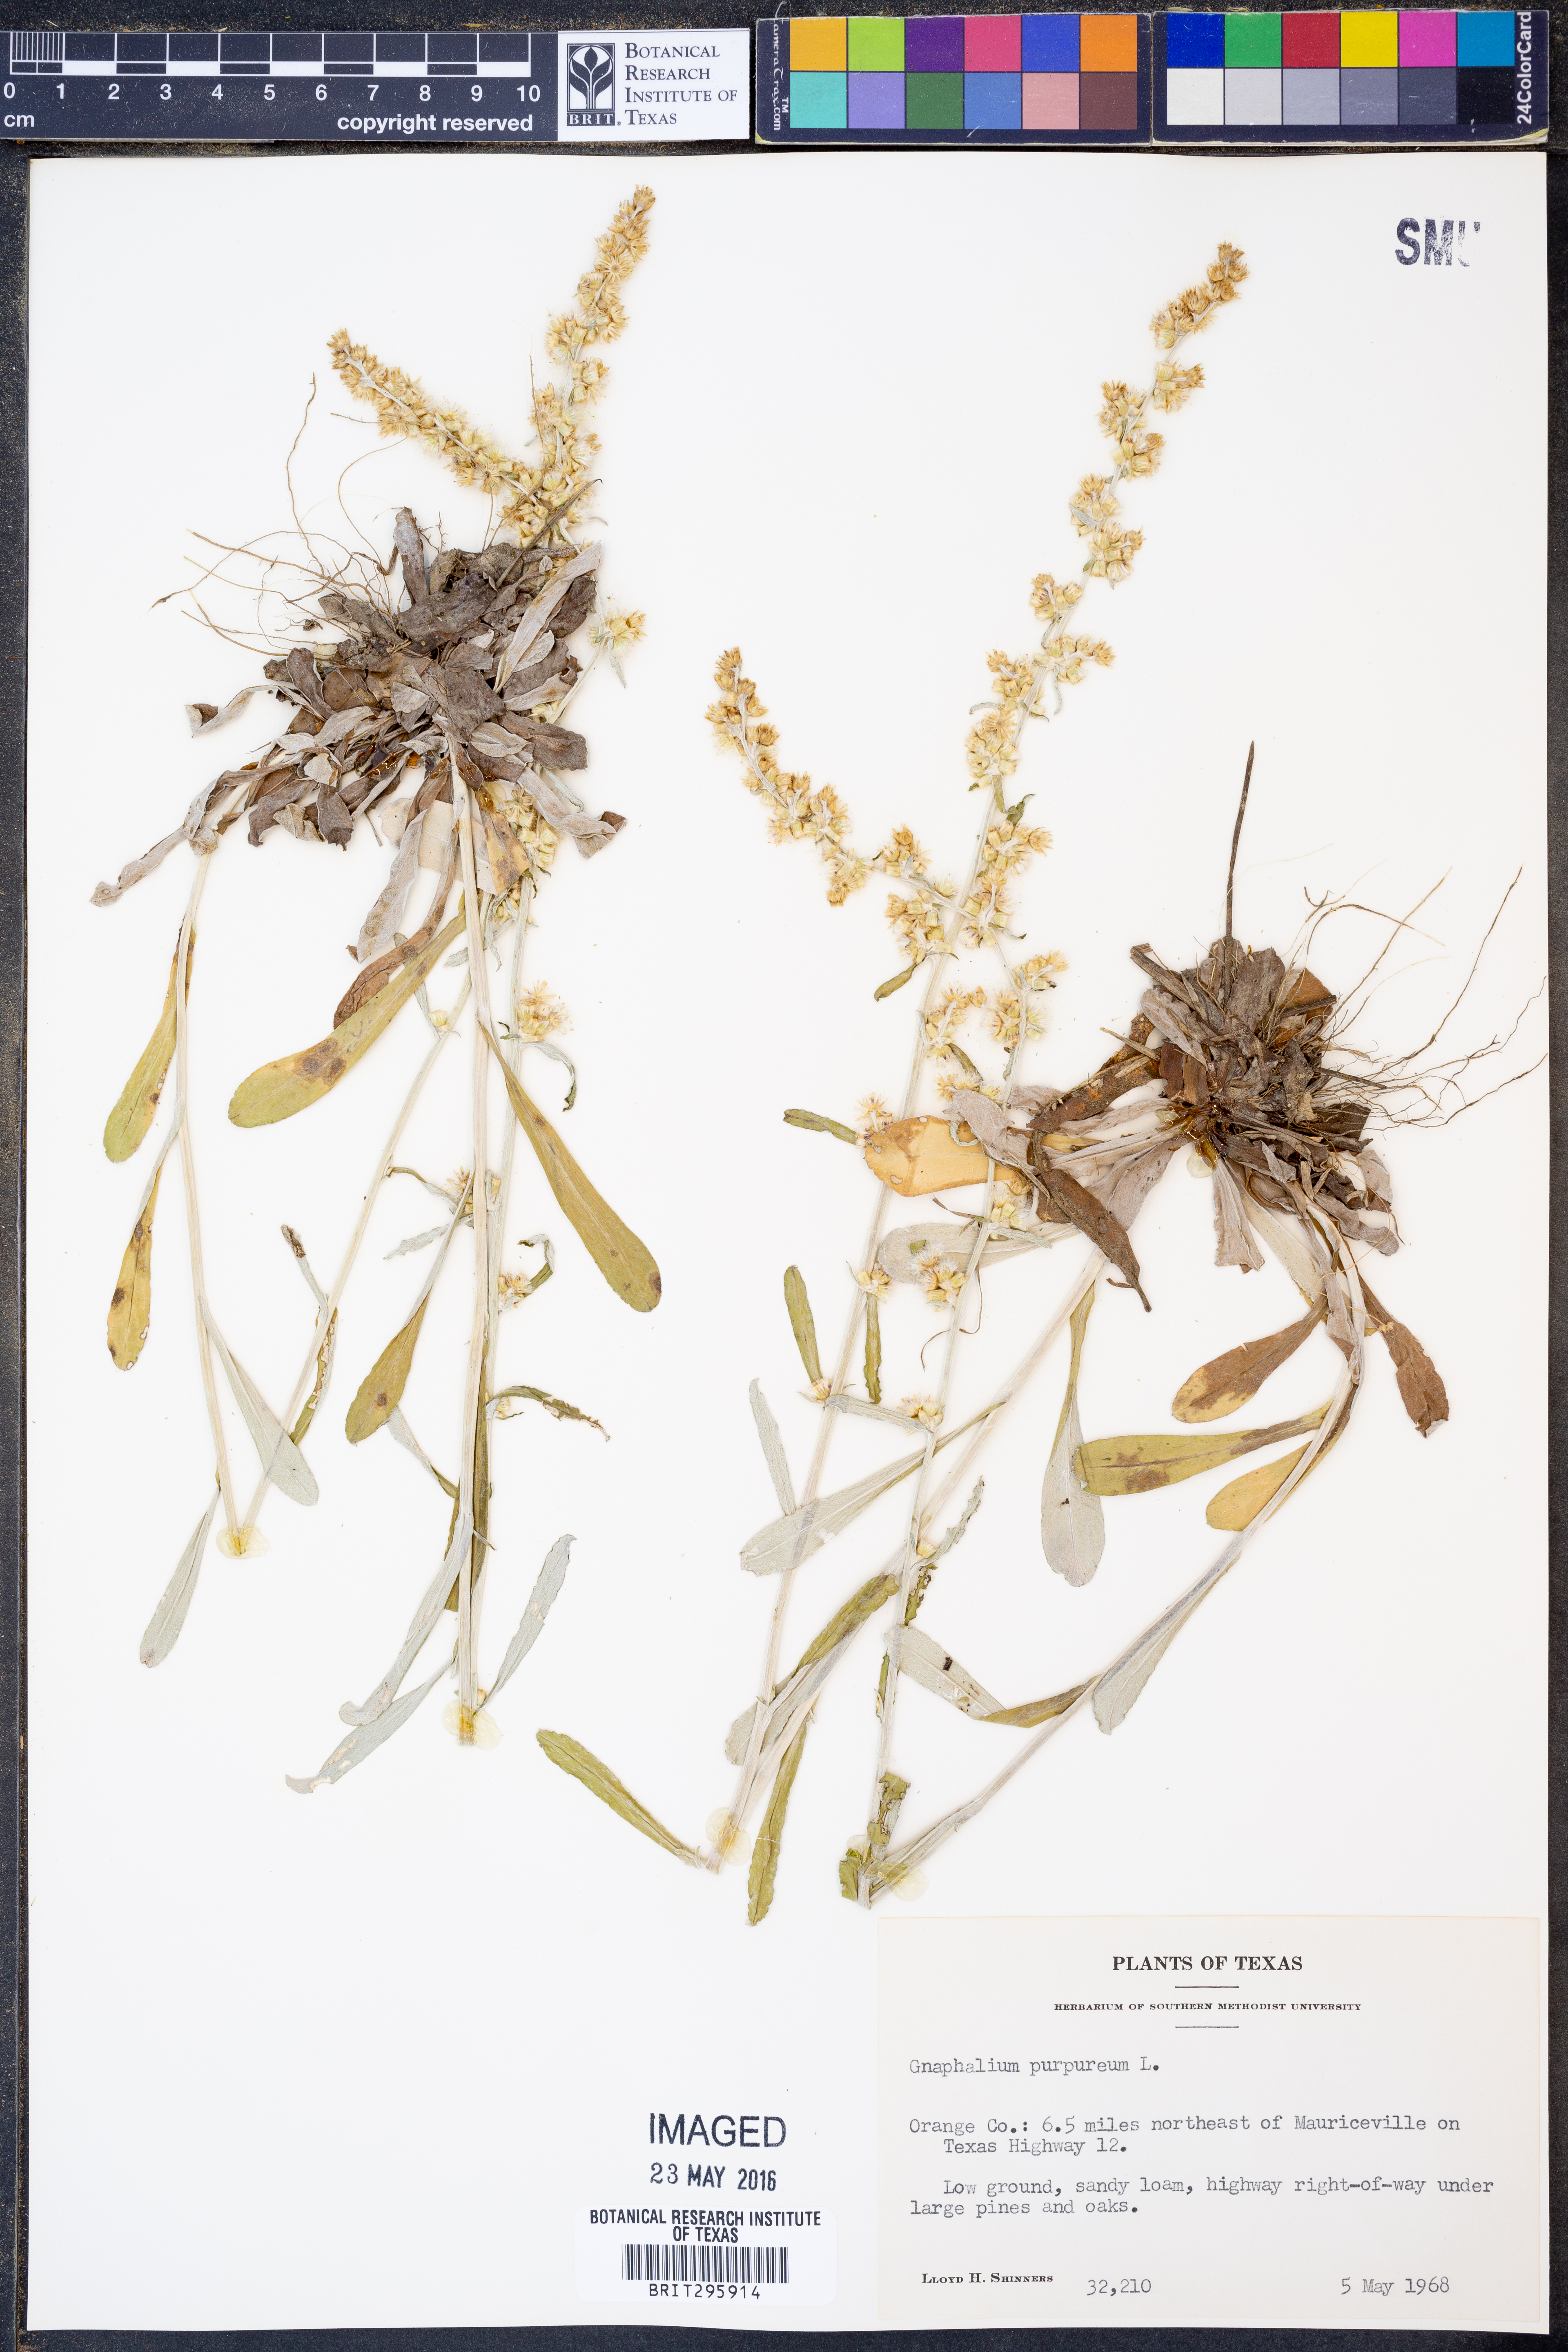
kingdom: Plantae
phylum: Tracheophyta
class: Magnoliopsida
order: Asterales
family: Asteraceae
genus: Gamochaeta
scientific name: Gamochaeta purpurea
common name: Purple cudweed
